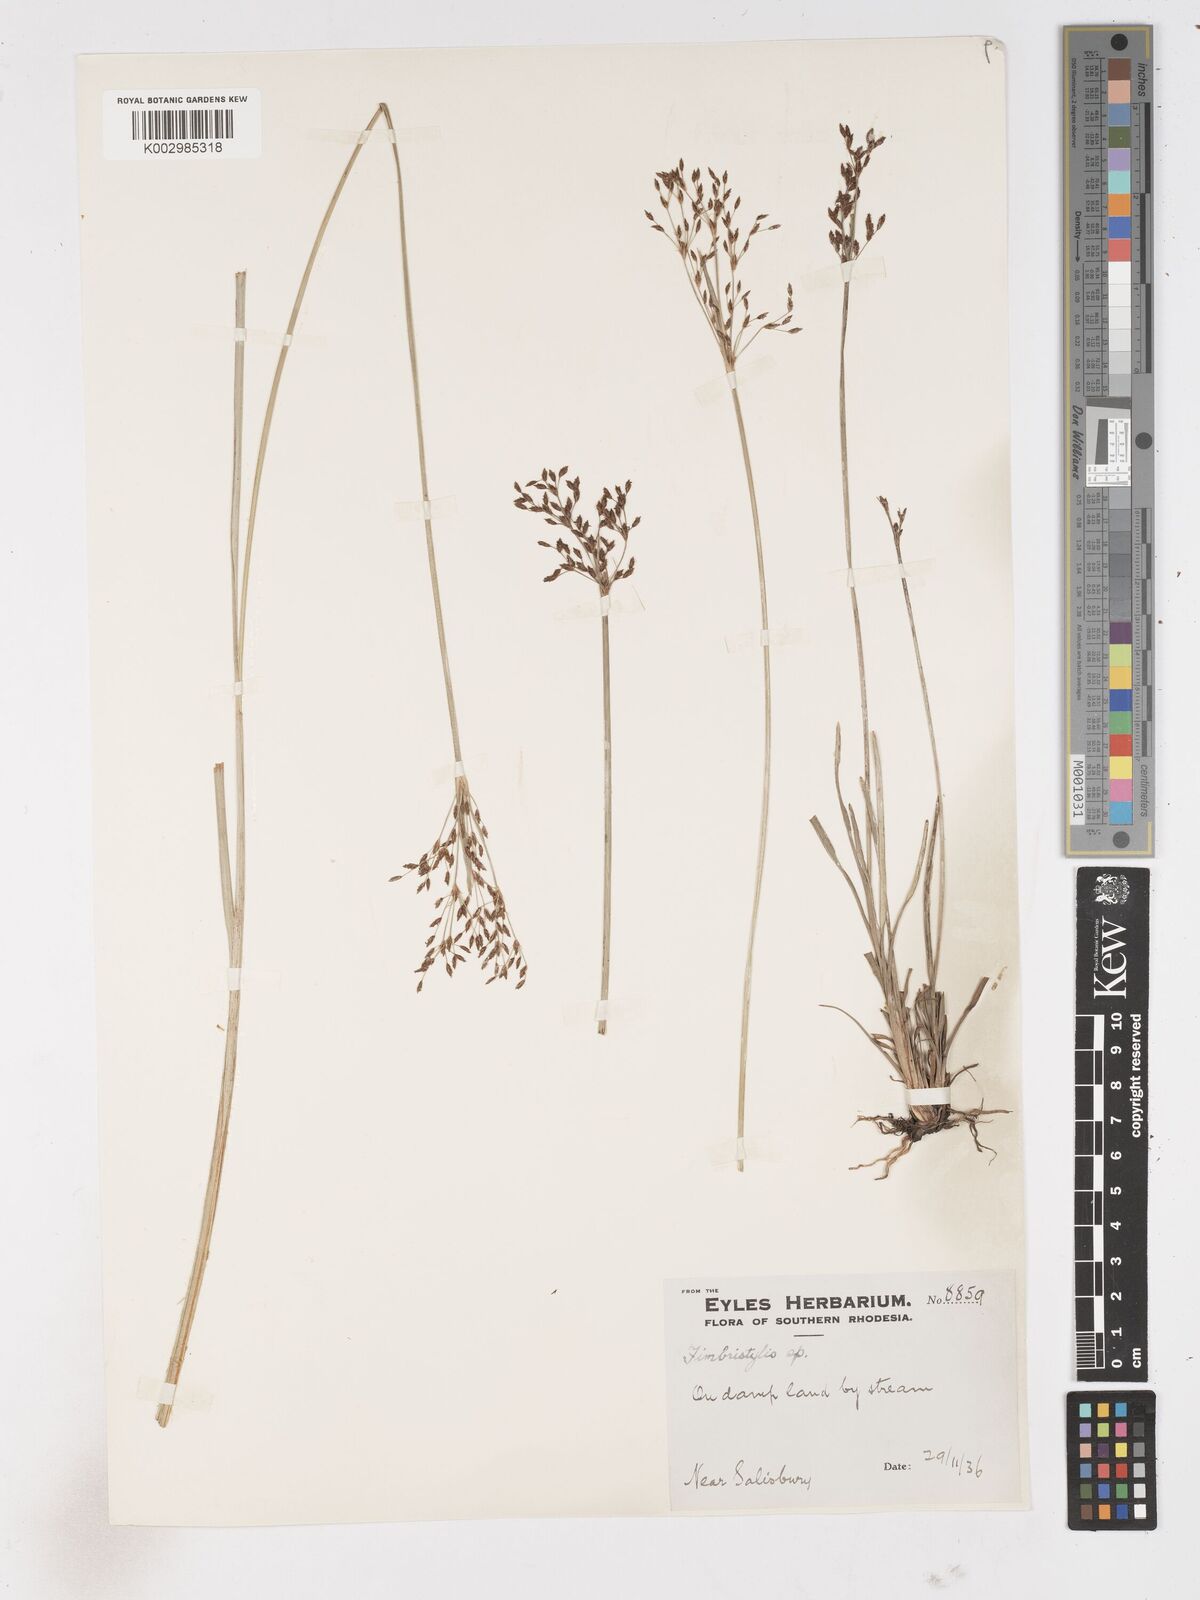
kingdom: Plantae
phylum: Tracheophyta
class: Liliopsida
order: Poales
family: Cyperaceae
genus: Fimbristylis
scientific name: Fimbristylis complanata
